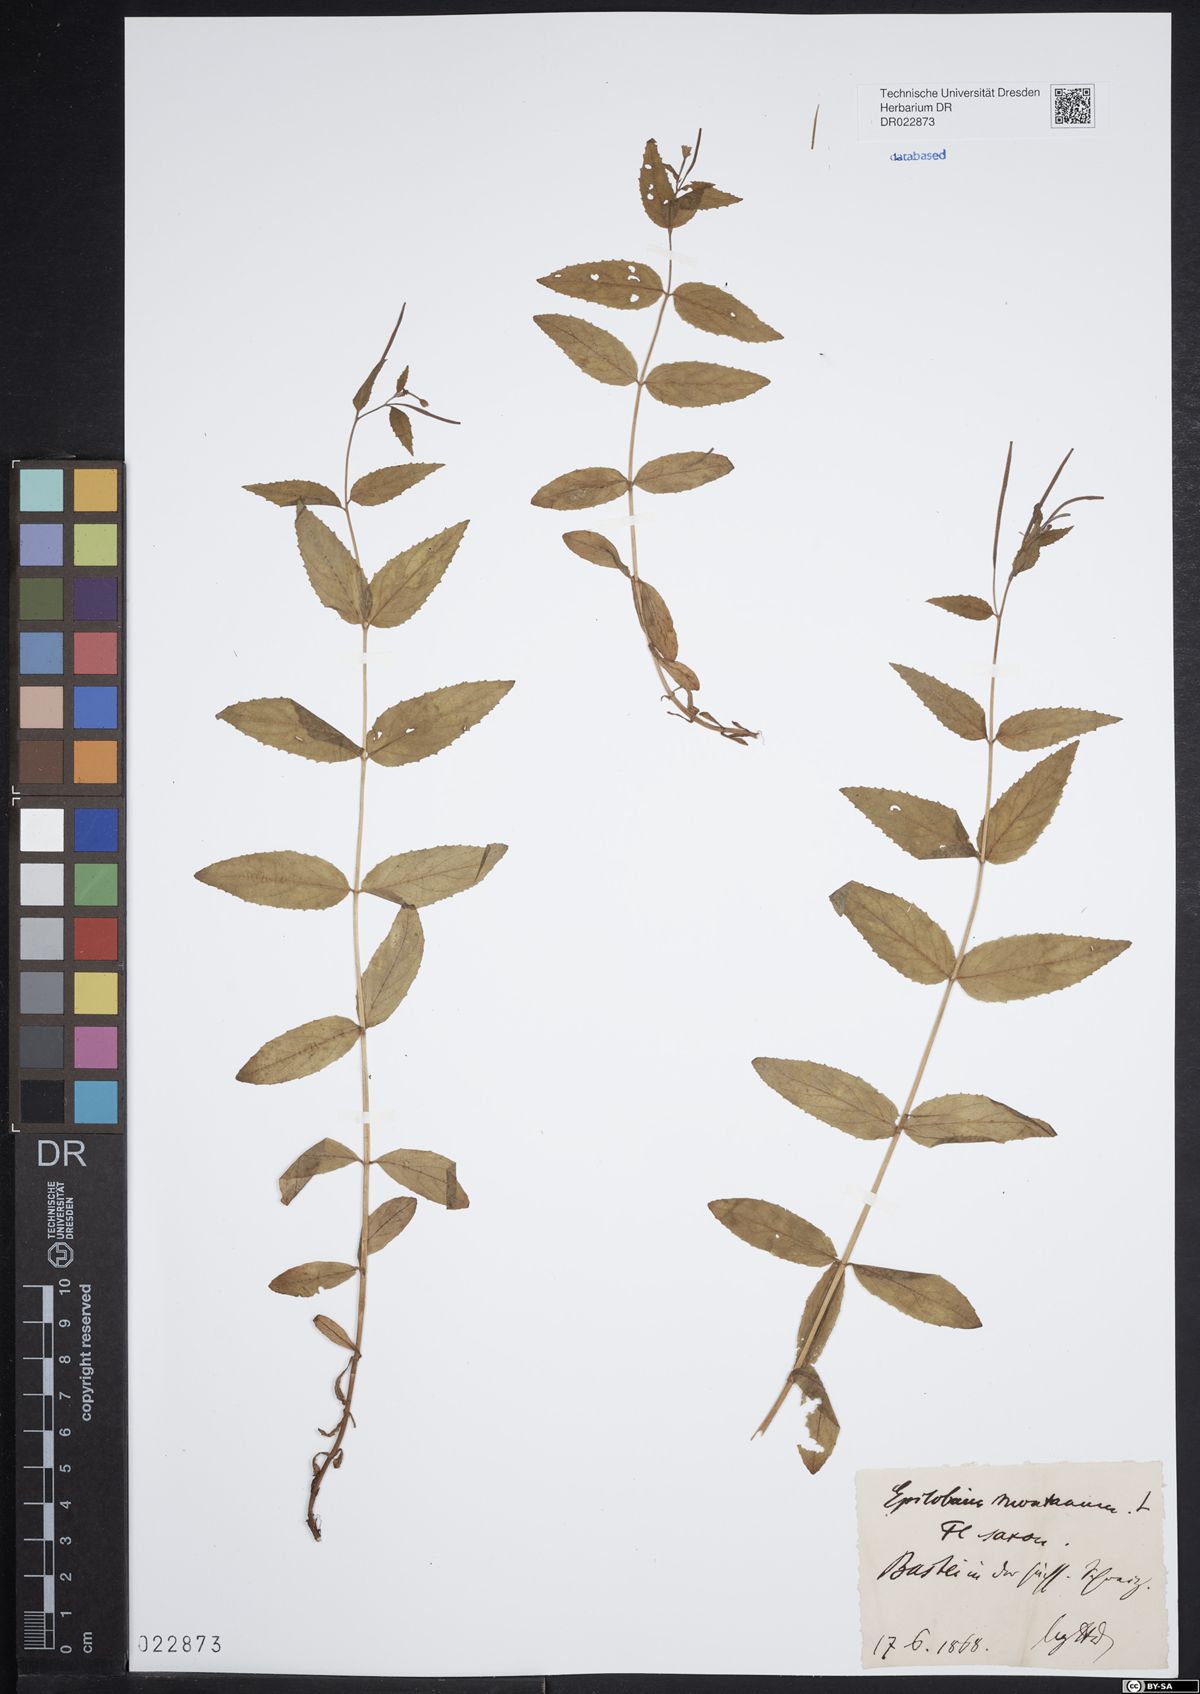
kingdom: Plantae
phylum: Tracheophyta
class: Magnoliopsida
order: Myrtales
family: Onagraceae
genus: Epilobium
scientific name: Epilobium montanum
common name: Broad-leaved willowherb
